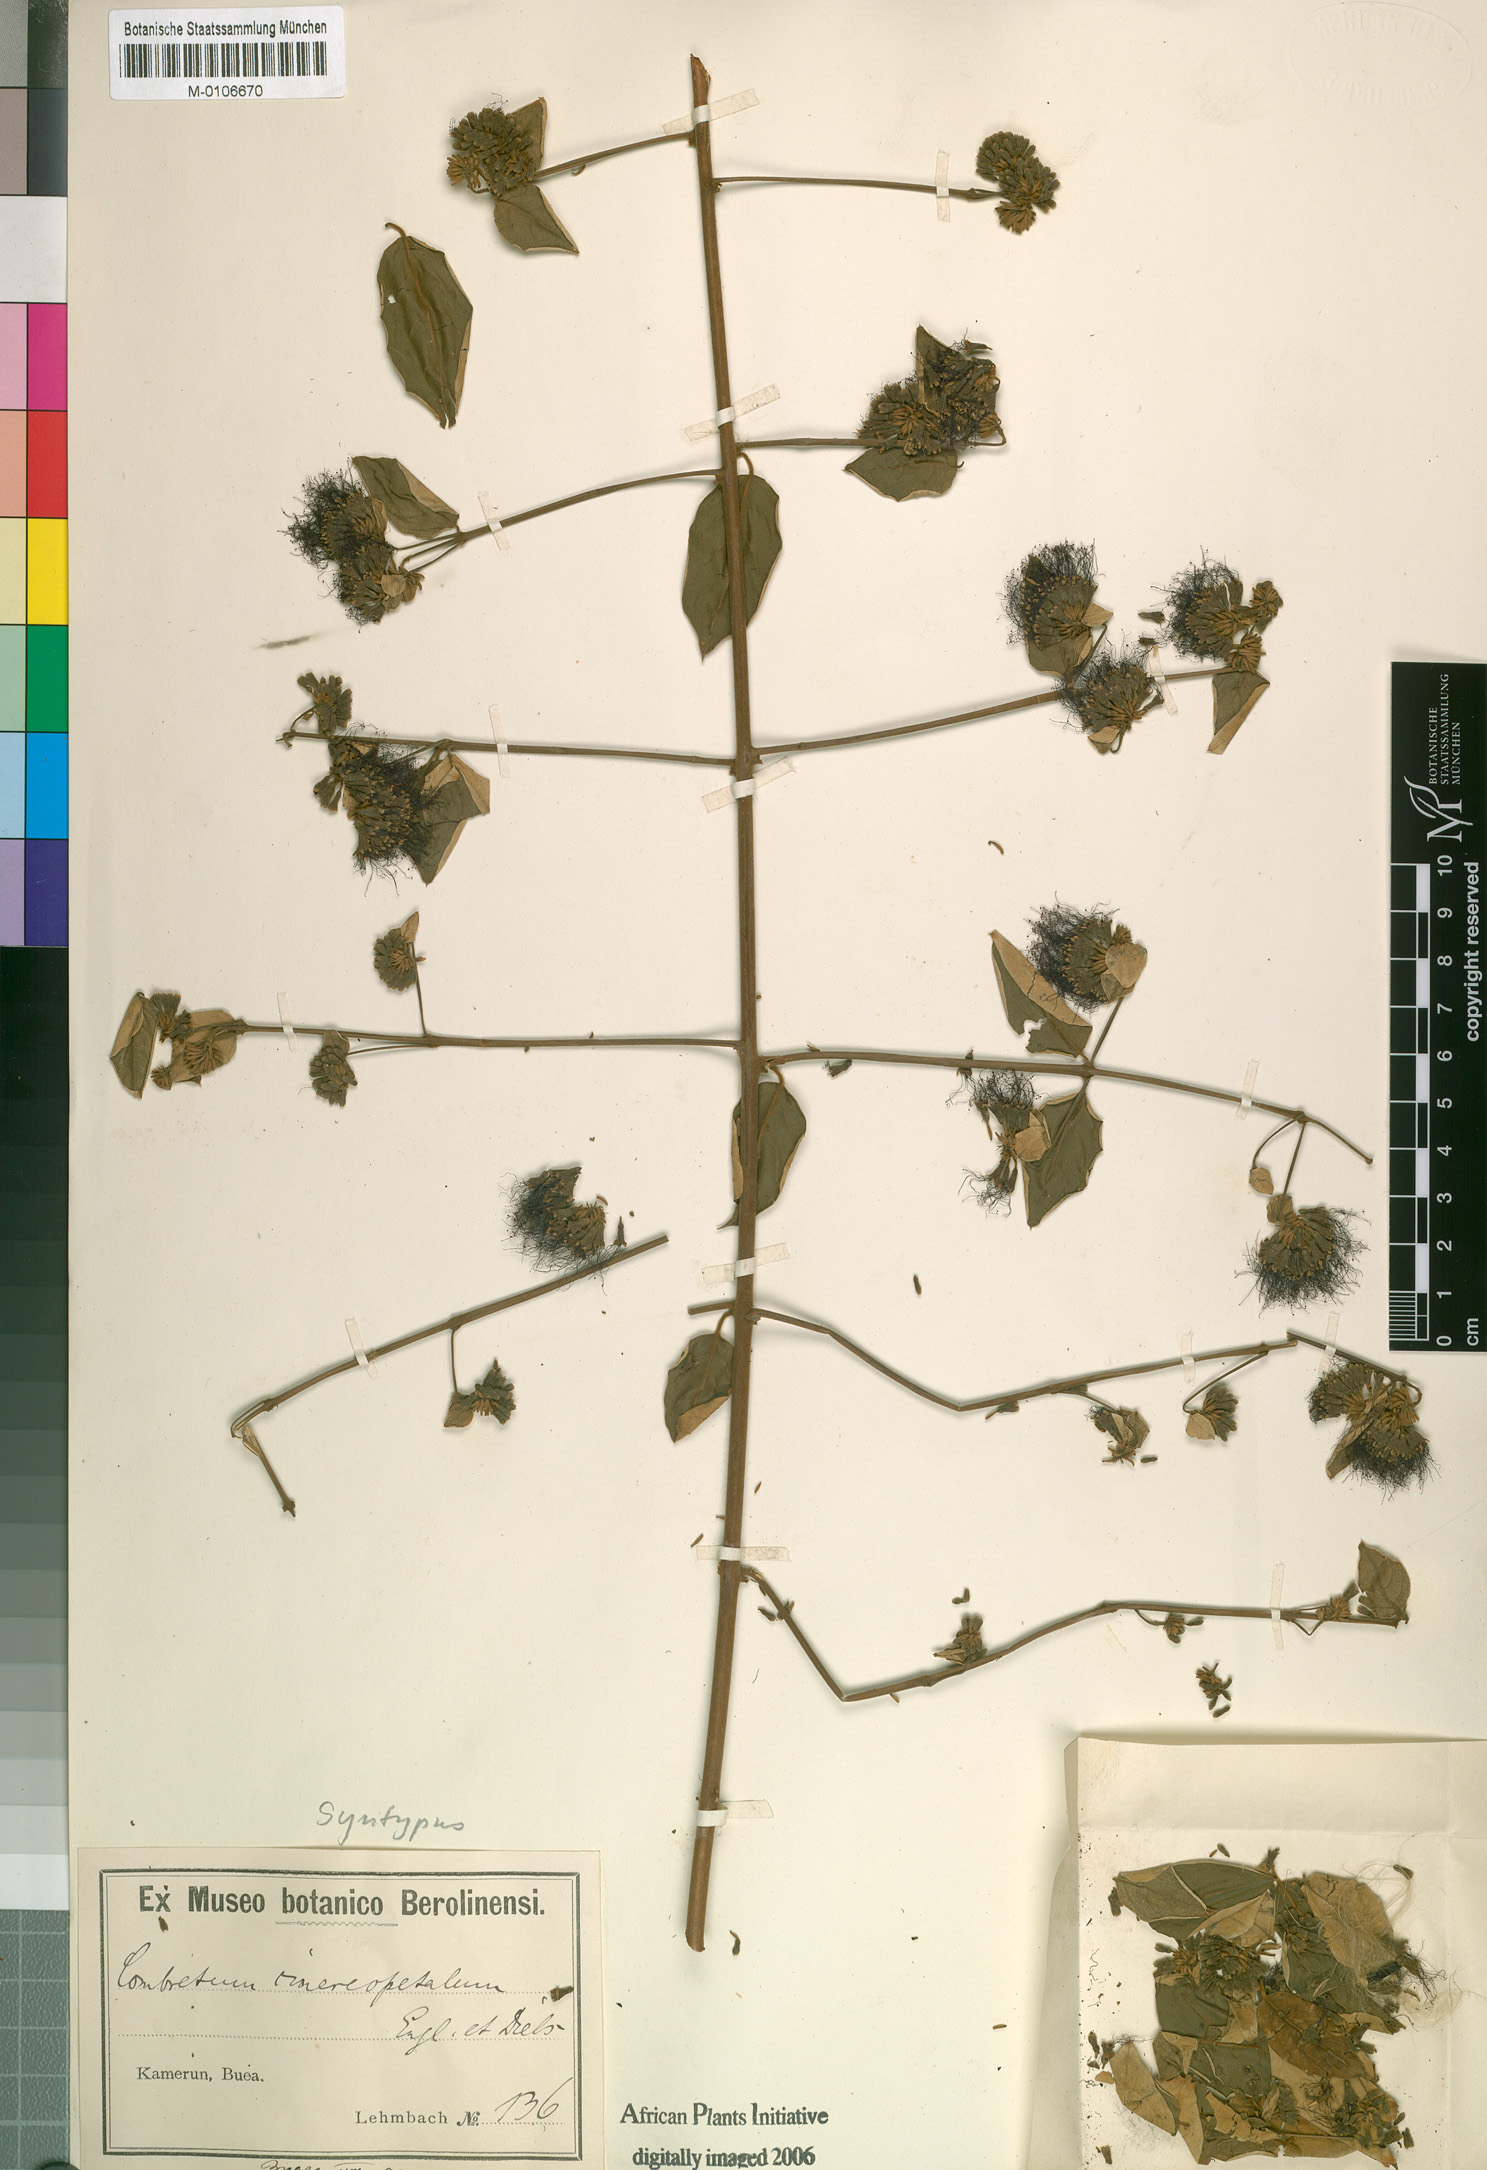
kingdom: Plantae
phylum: Tracheophyta
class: Magnoliopsida
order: Myrtales
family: Combretaceae
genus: Combretum
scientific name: Combretum cinereopetalum
